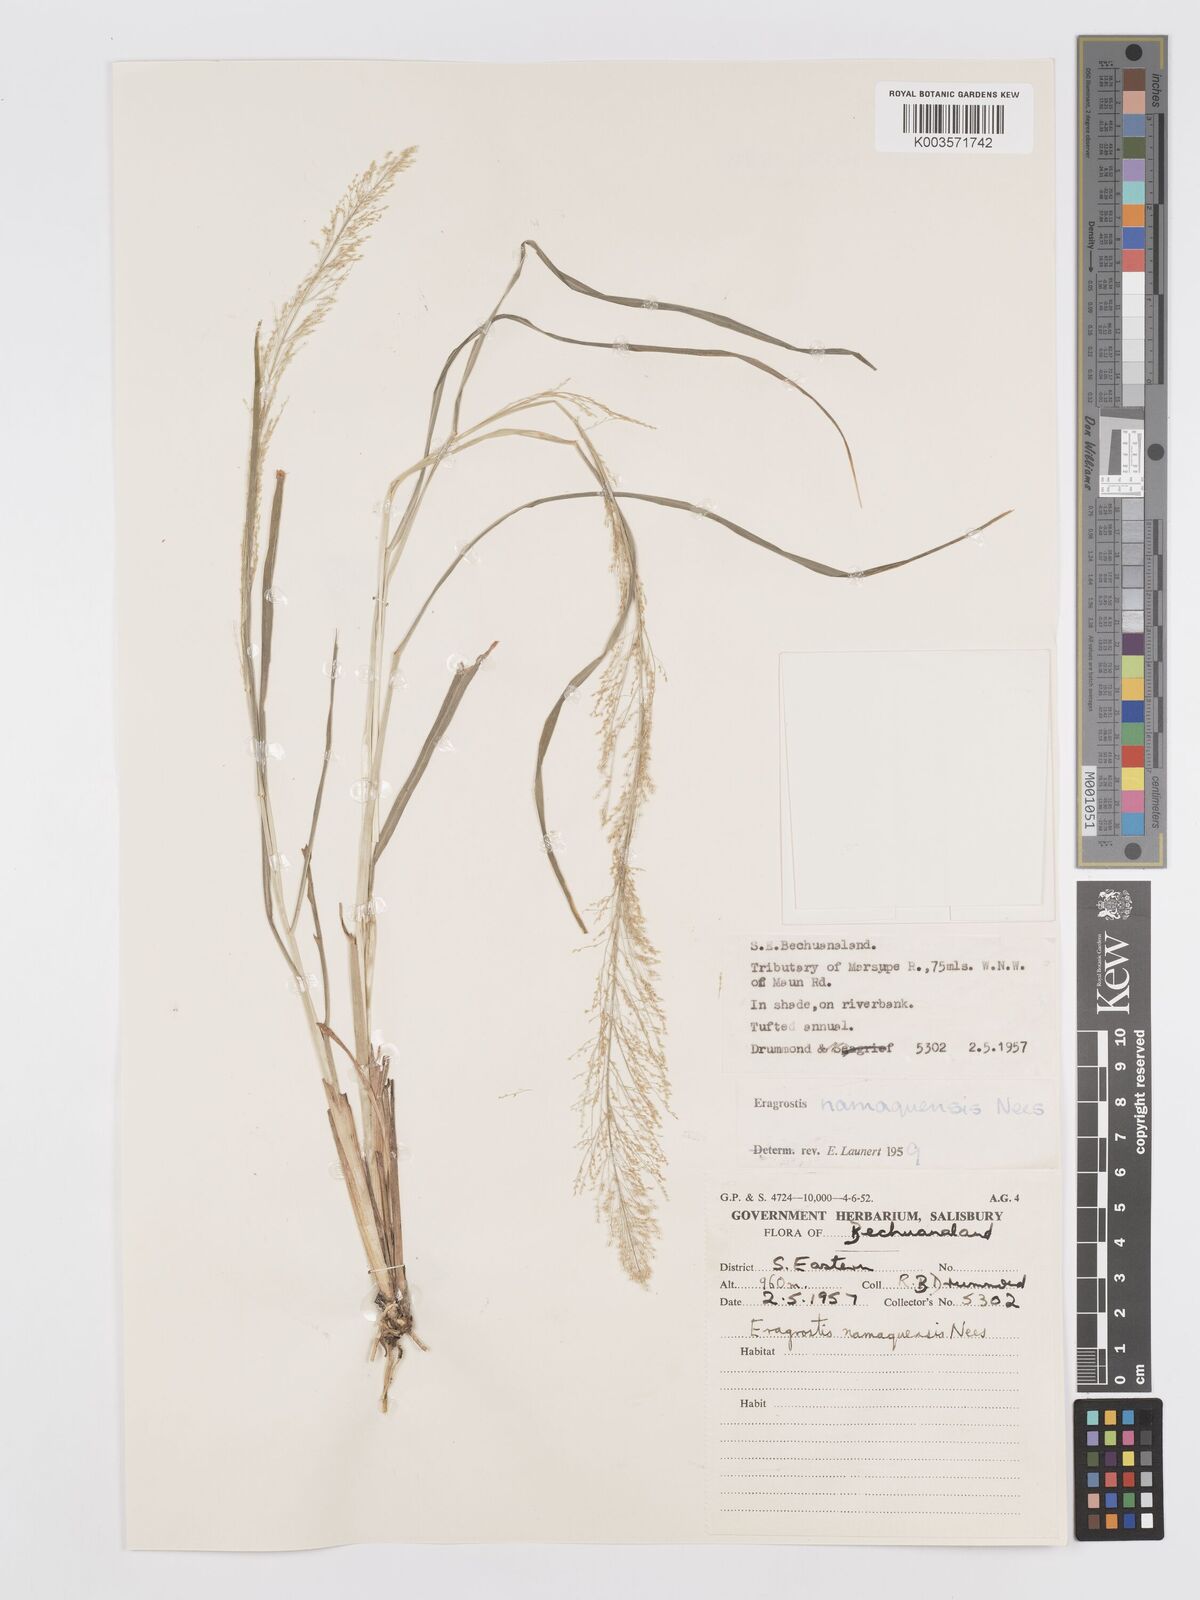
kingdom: Plantae
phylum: Tracheophyta
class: Liliopsida
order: Poales
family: Poaceae
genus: Eragrostis
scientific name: Eragrostis japonica
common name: Pond lovegrass
